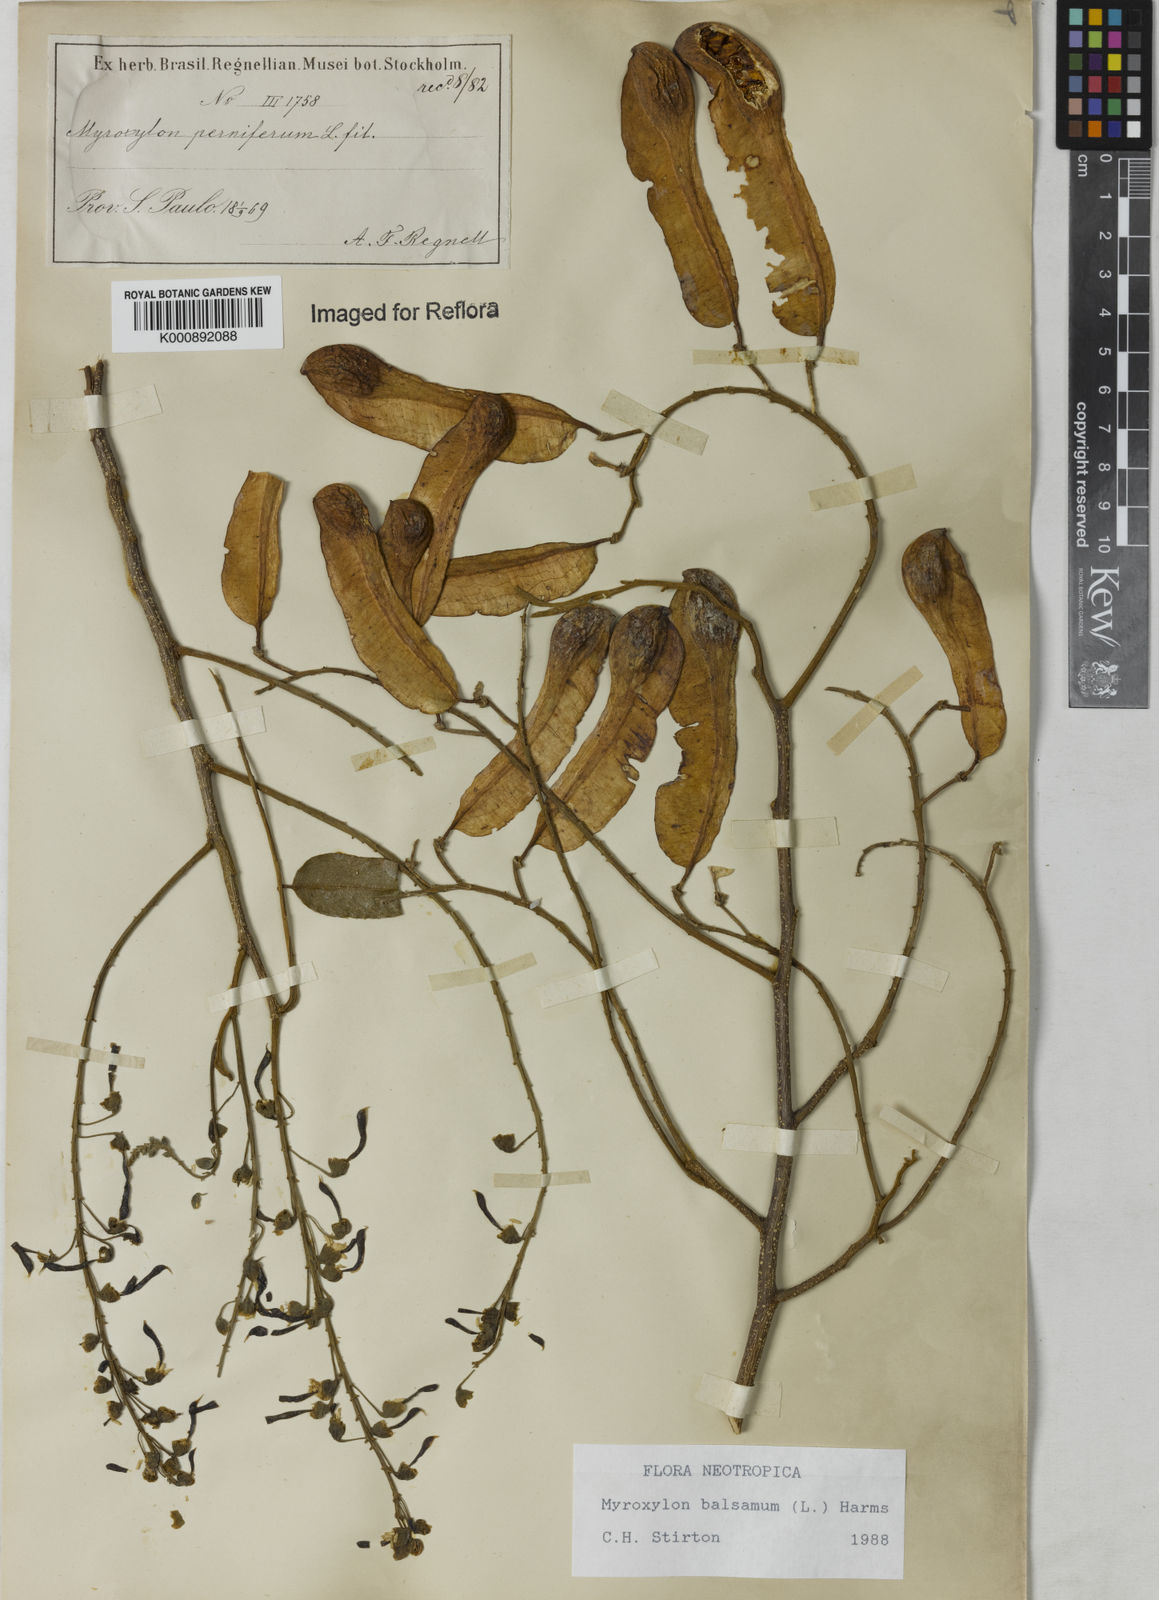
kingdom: Plantae
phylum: Tracheophyta
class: Magnoliopsida
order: Fabales
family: Fabaceae
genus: Myroxylon
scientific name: Myroxylon balsamum
